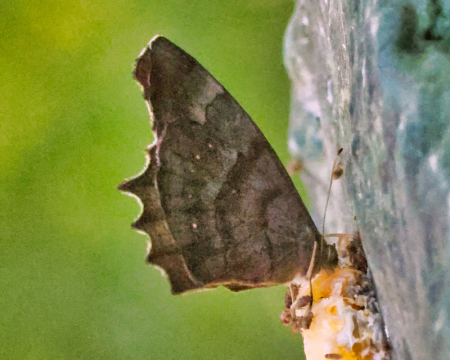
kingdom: Animalia
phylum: Arthropoda
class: Insecta
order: Lepidoptera
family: Nymphalidae
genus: Pseudodebis
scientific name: Pseudodebis celia
